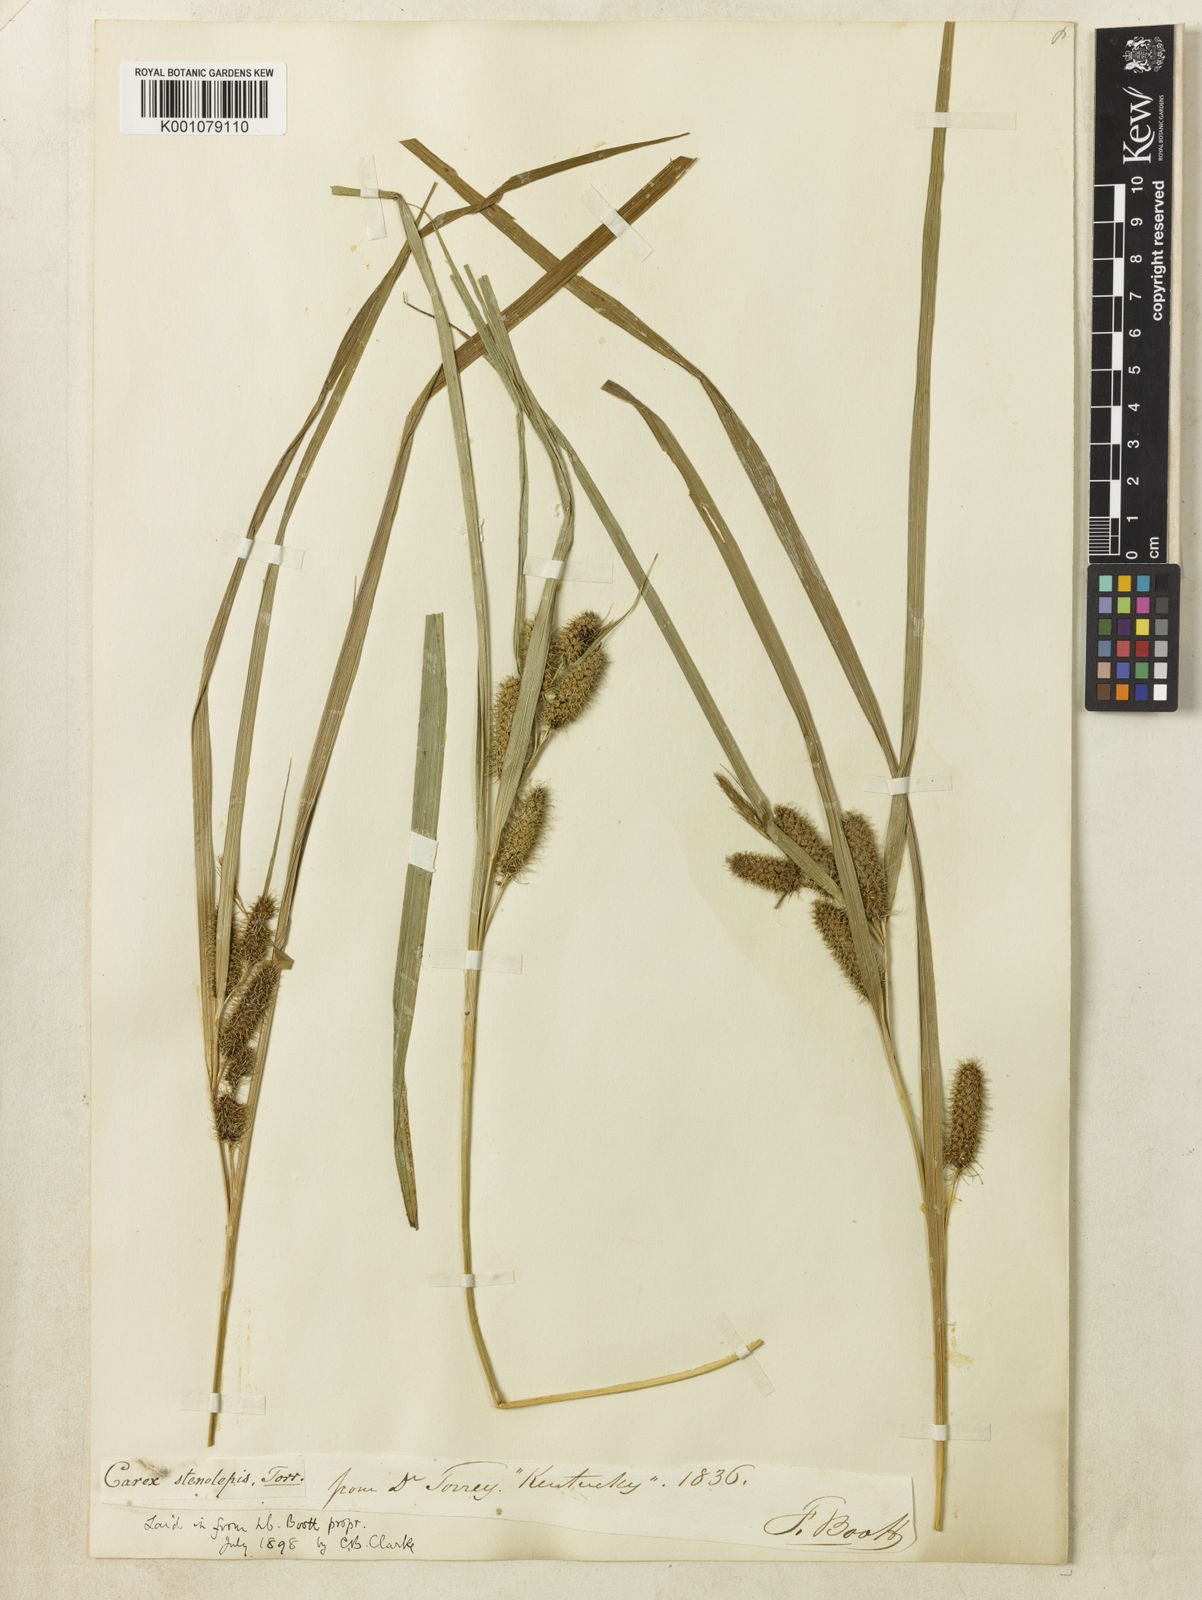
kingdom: Plantae
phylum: Tracheophyta
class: Liliopsida
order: Poales
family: Cyperaceae
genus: Carex
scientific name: Carex frankii
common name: Frank's sedge
